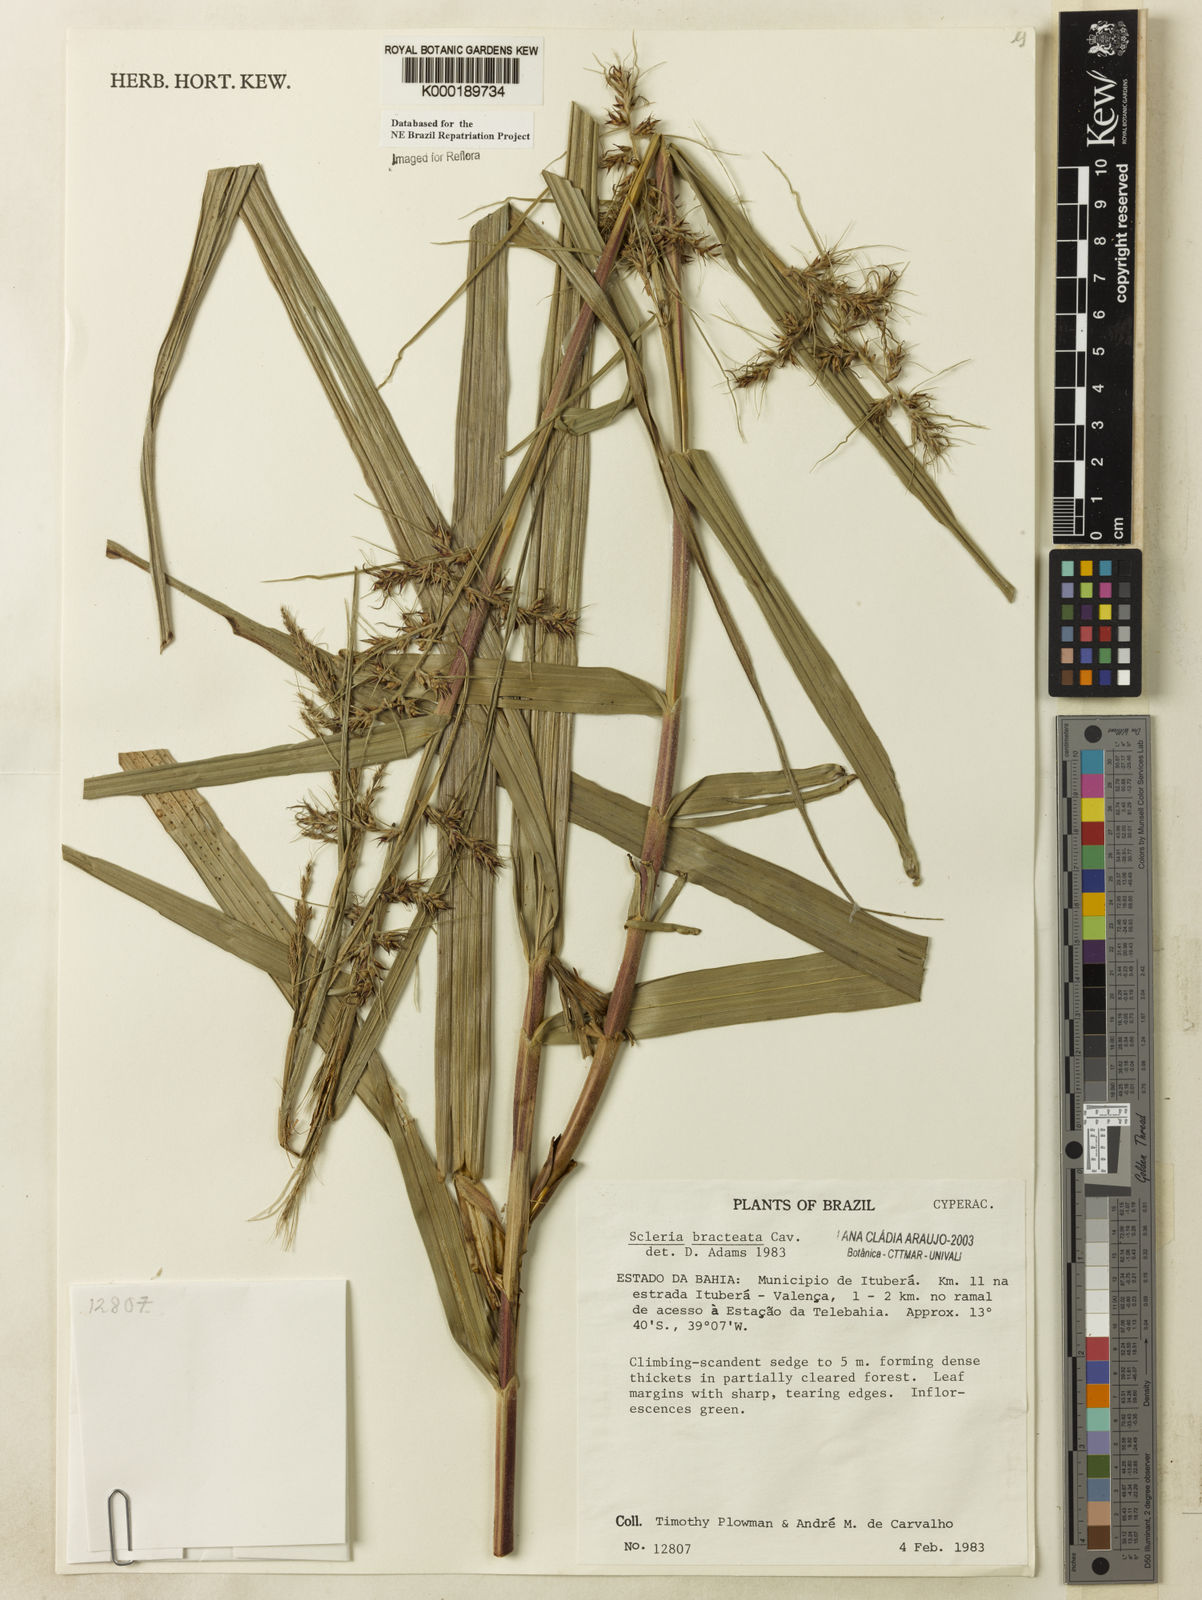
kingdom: Plantae
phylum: Tracheophyta
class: Liliopsida
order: Poales
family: Cyperaceae
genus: Scleria
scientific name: Scleria bracteata
